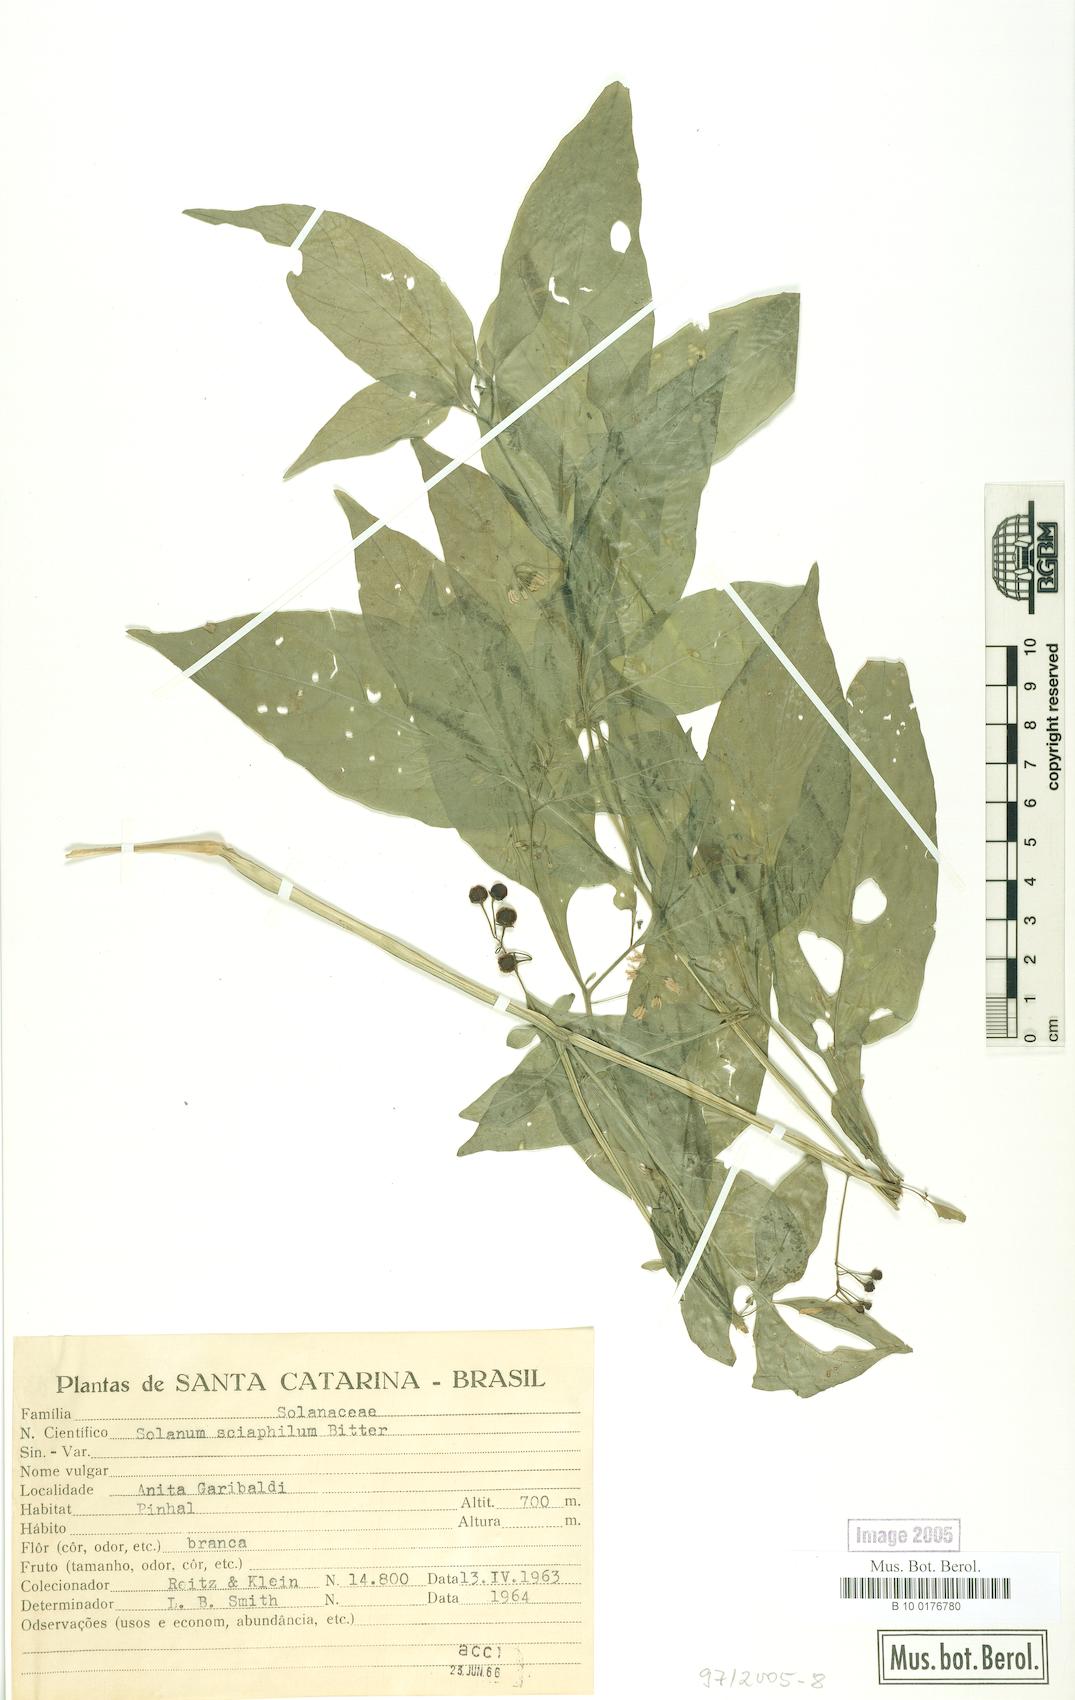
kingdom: Plantae
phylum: Tracheophyta
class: Magnoliopsida
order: Solanales
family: Solanaceae
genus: Solanum
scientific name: Solanum americanum
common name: American black nightshade
